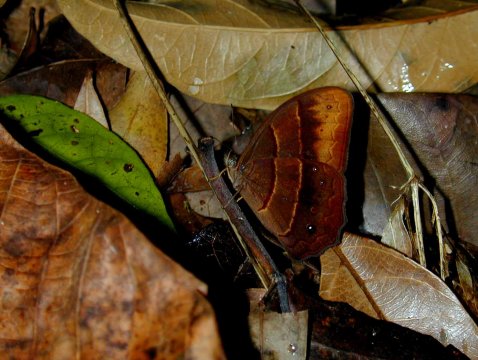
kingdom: Animalia
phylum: Arthropoda
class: Insecta
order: Lepidoptera
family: Nymphalidae
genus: Satyrotaygetis
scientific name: Satyrotaygetis satyrina
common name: Wide-bordered Satyr
